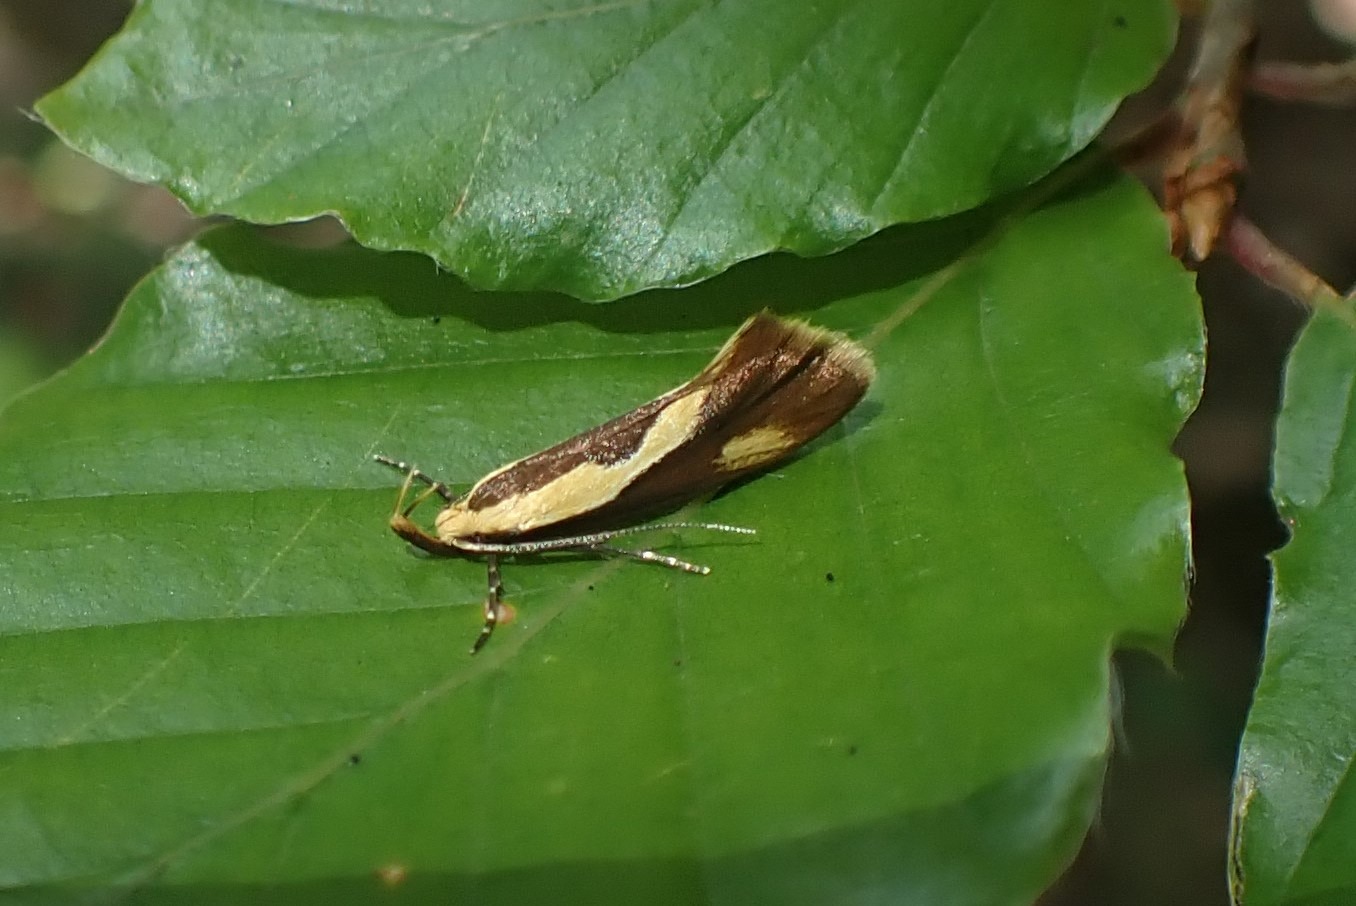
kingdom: Animalia
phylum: Arthropoda
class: Insecta
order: Lepidoptera
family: Oecophoridae
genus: Harpella
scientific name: Harpella forficella
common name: Kæmpeprydvinge
